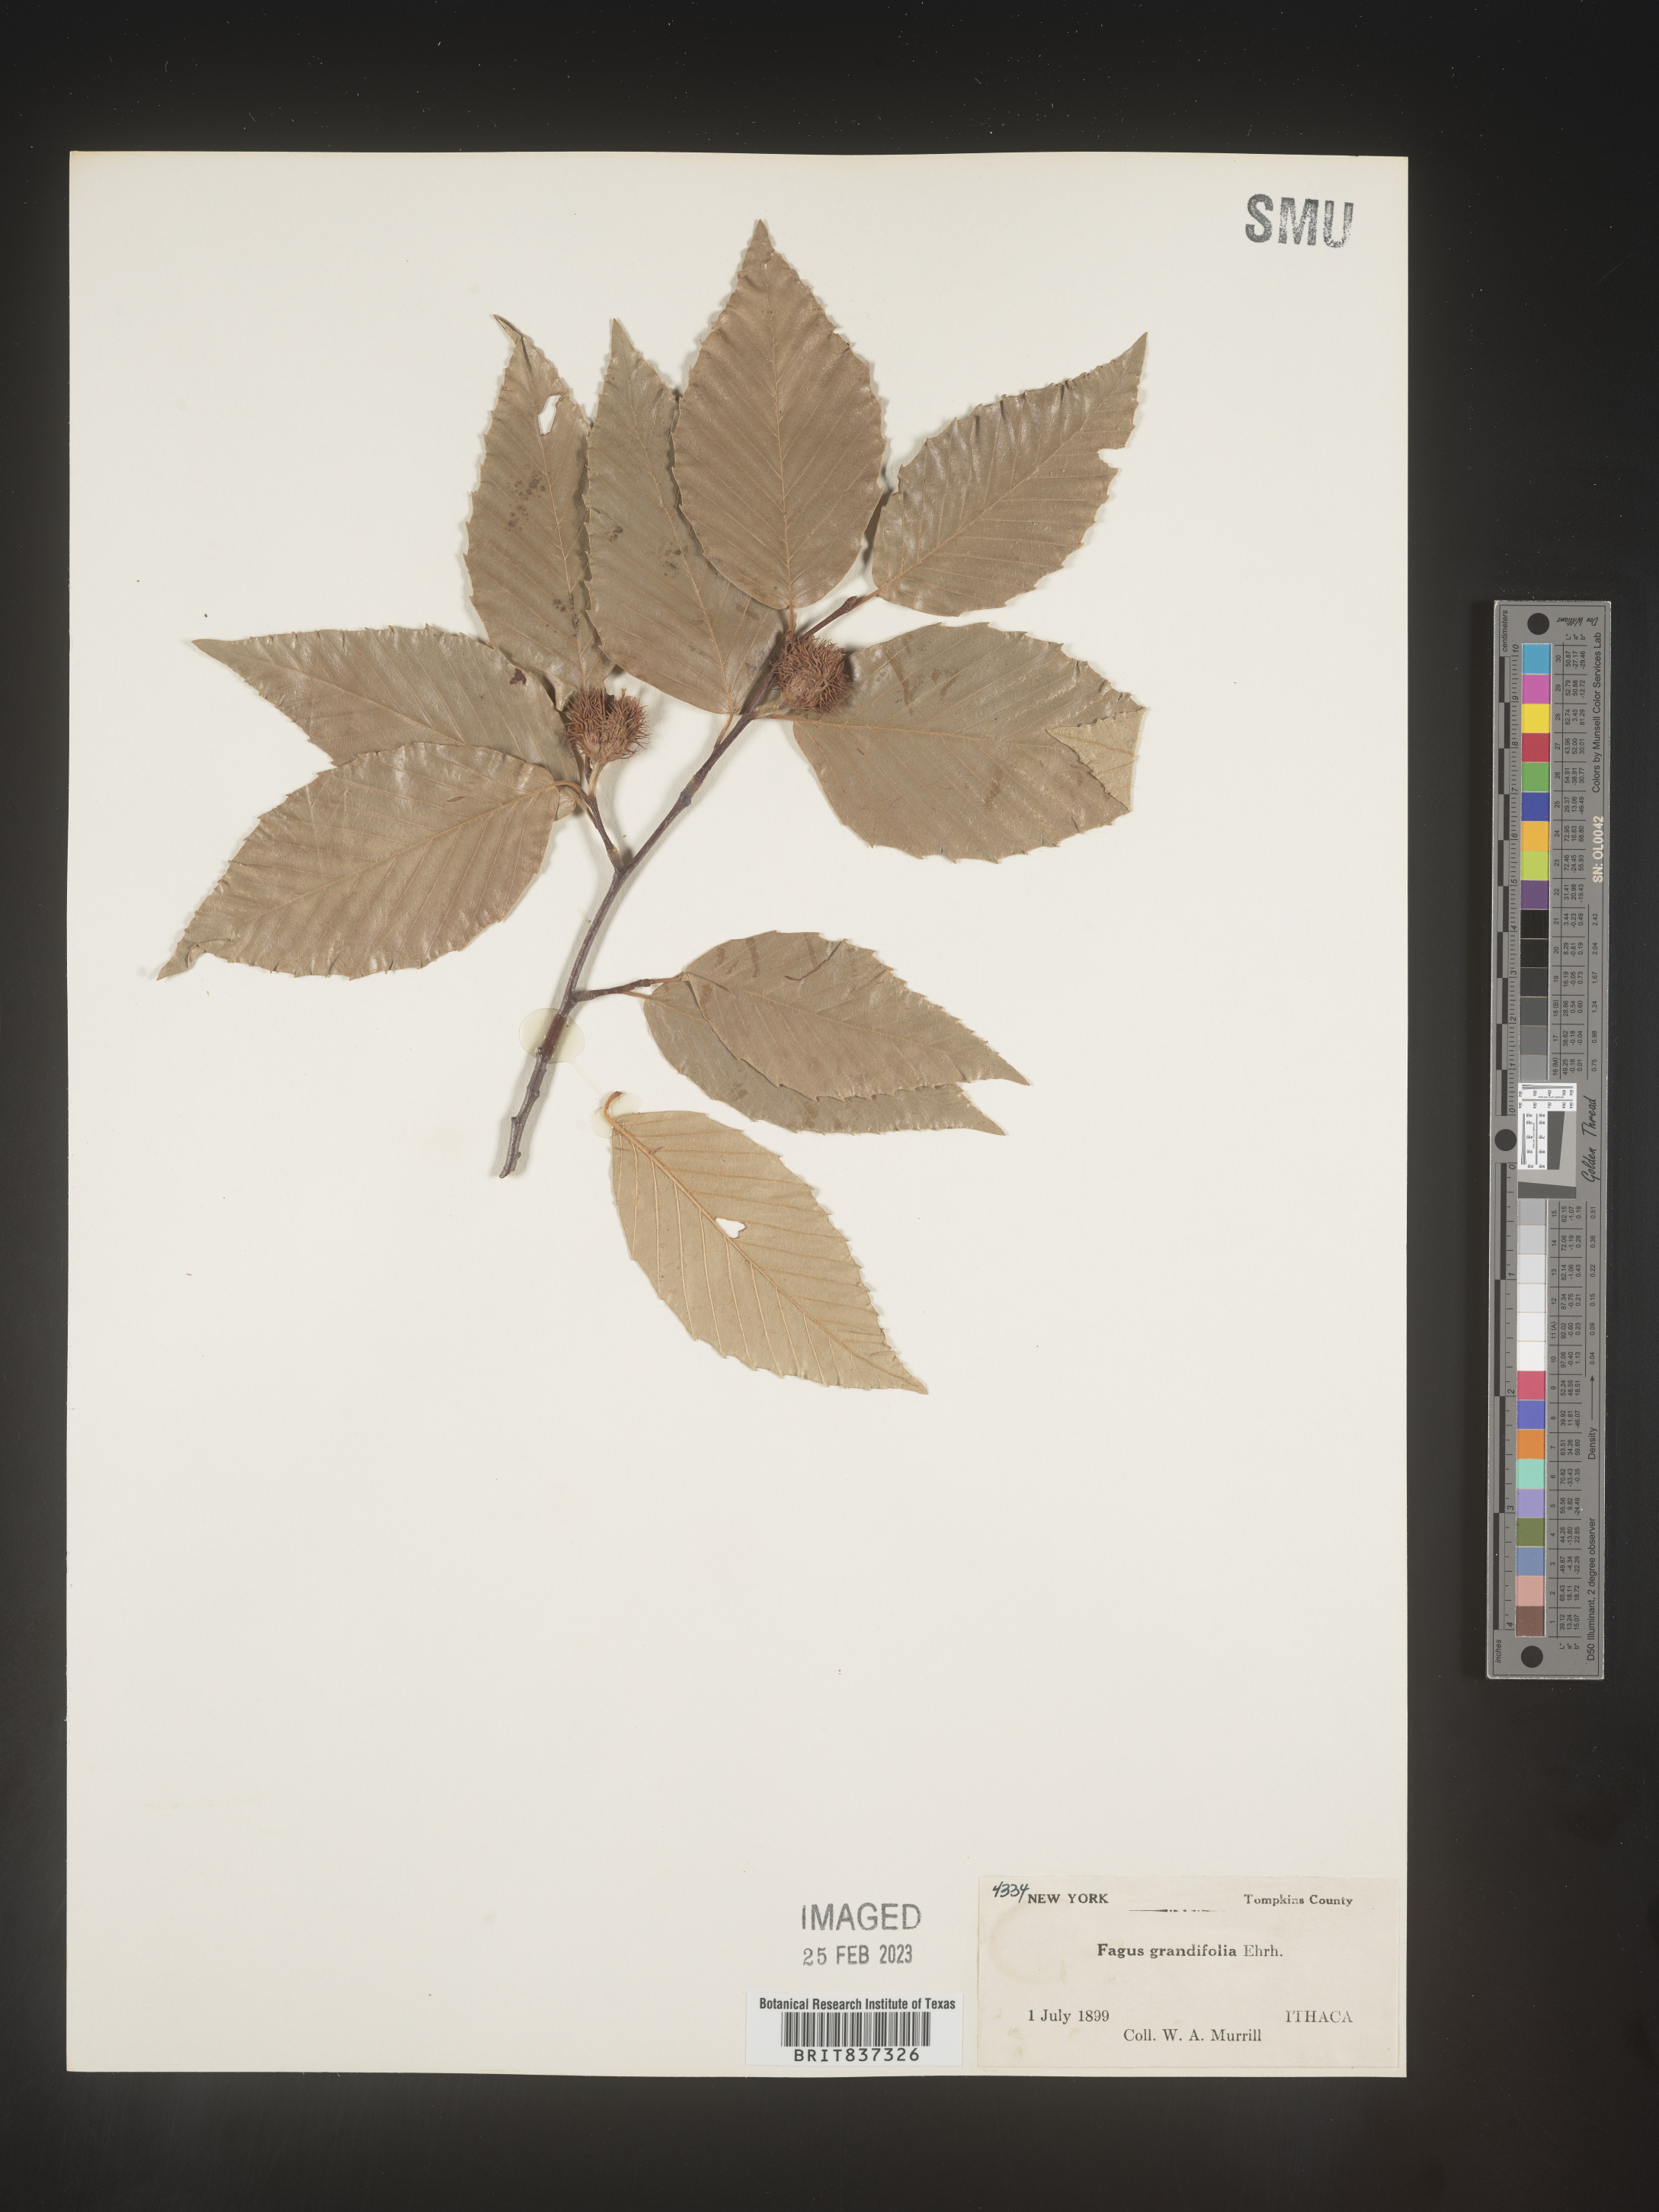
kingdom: Plantae
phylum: Tracheophyta
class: Magnoliopsida
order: Fagales
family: Fagaceae
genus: Fagus
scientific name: Fagus grandifolia
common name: American beech
